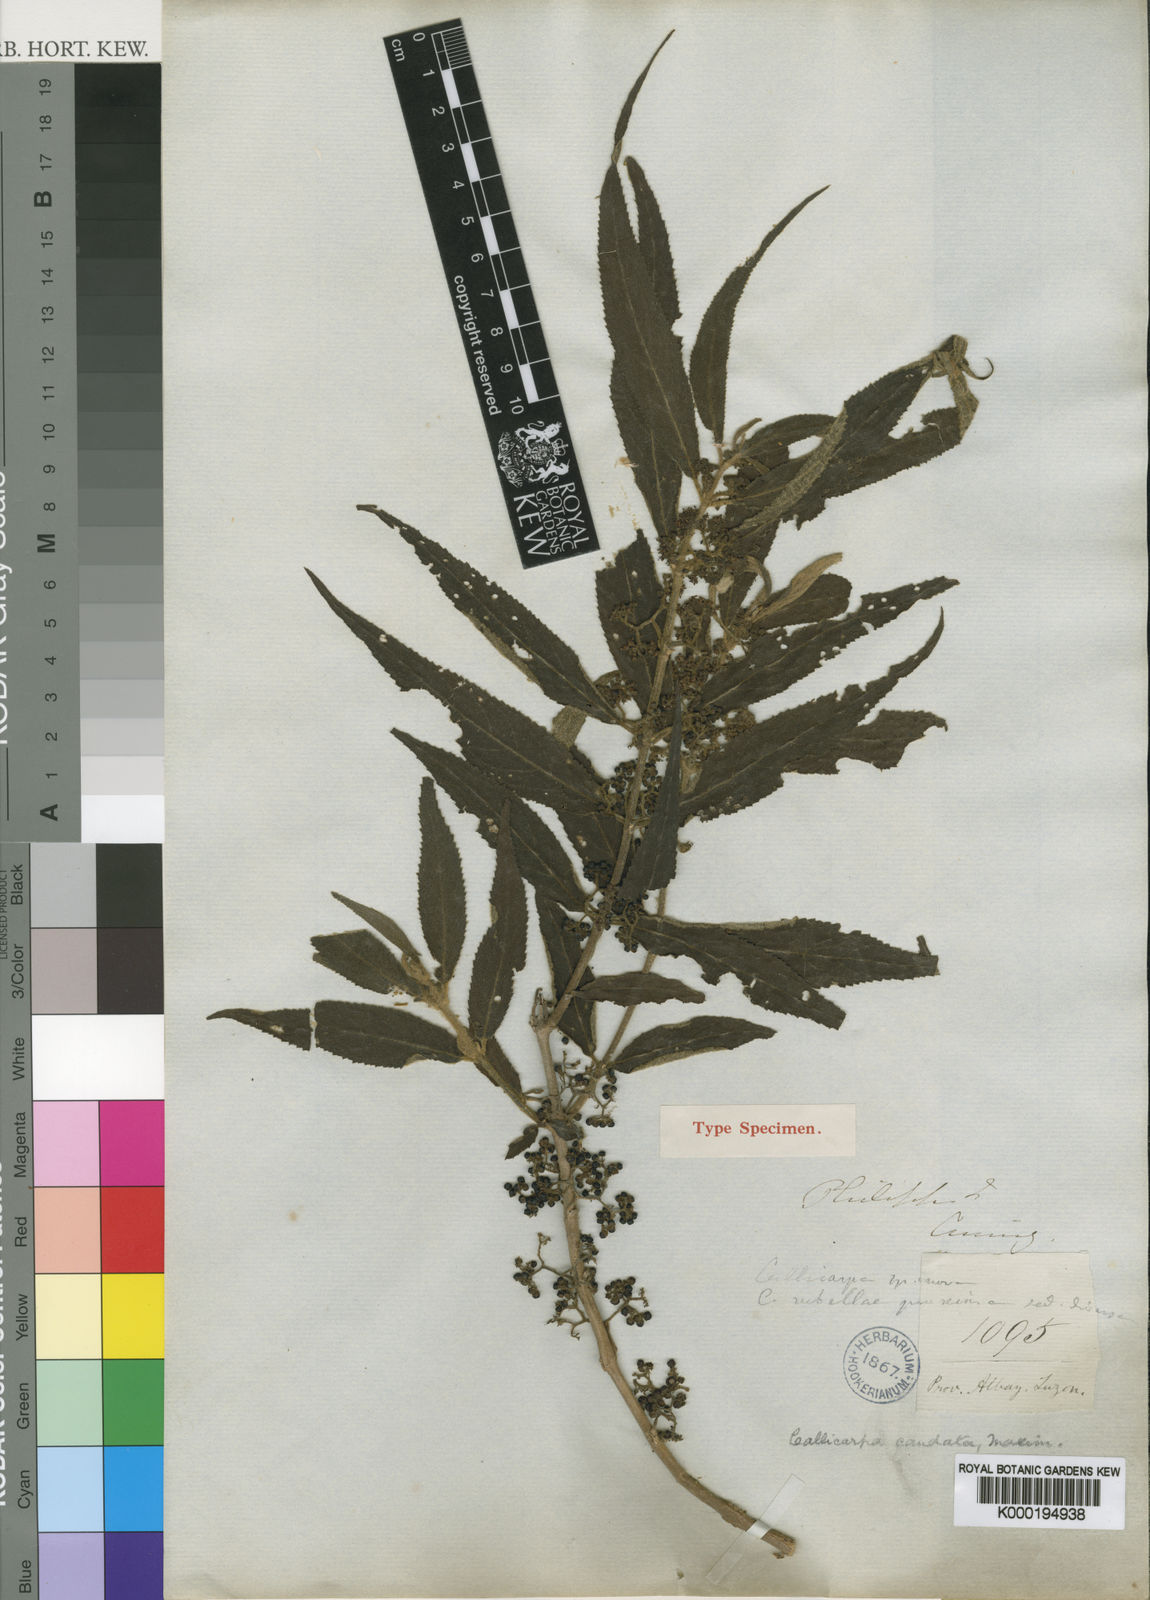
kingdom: Plantae
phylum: Tracheophyta
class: Magnoliopsida
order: Lamiales
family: Lamiaceae
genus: Callicarpa
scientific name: Callicarpa pedunculata
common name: Velvetleaf
